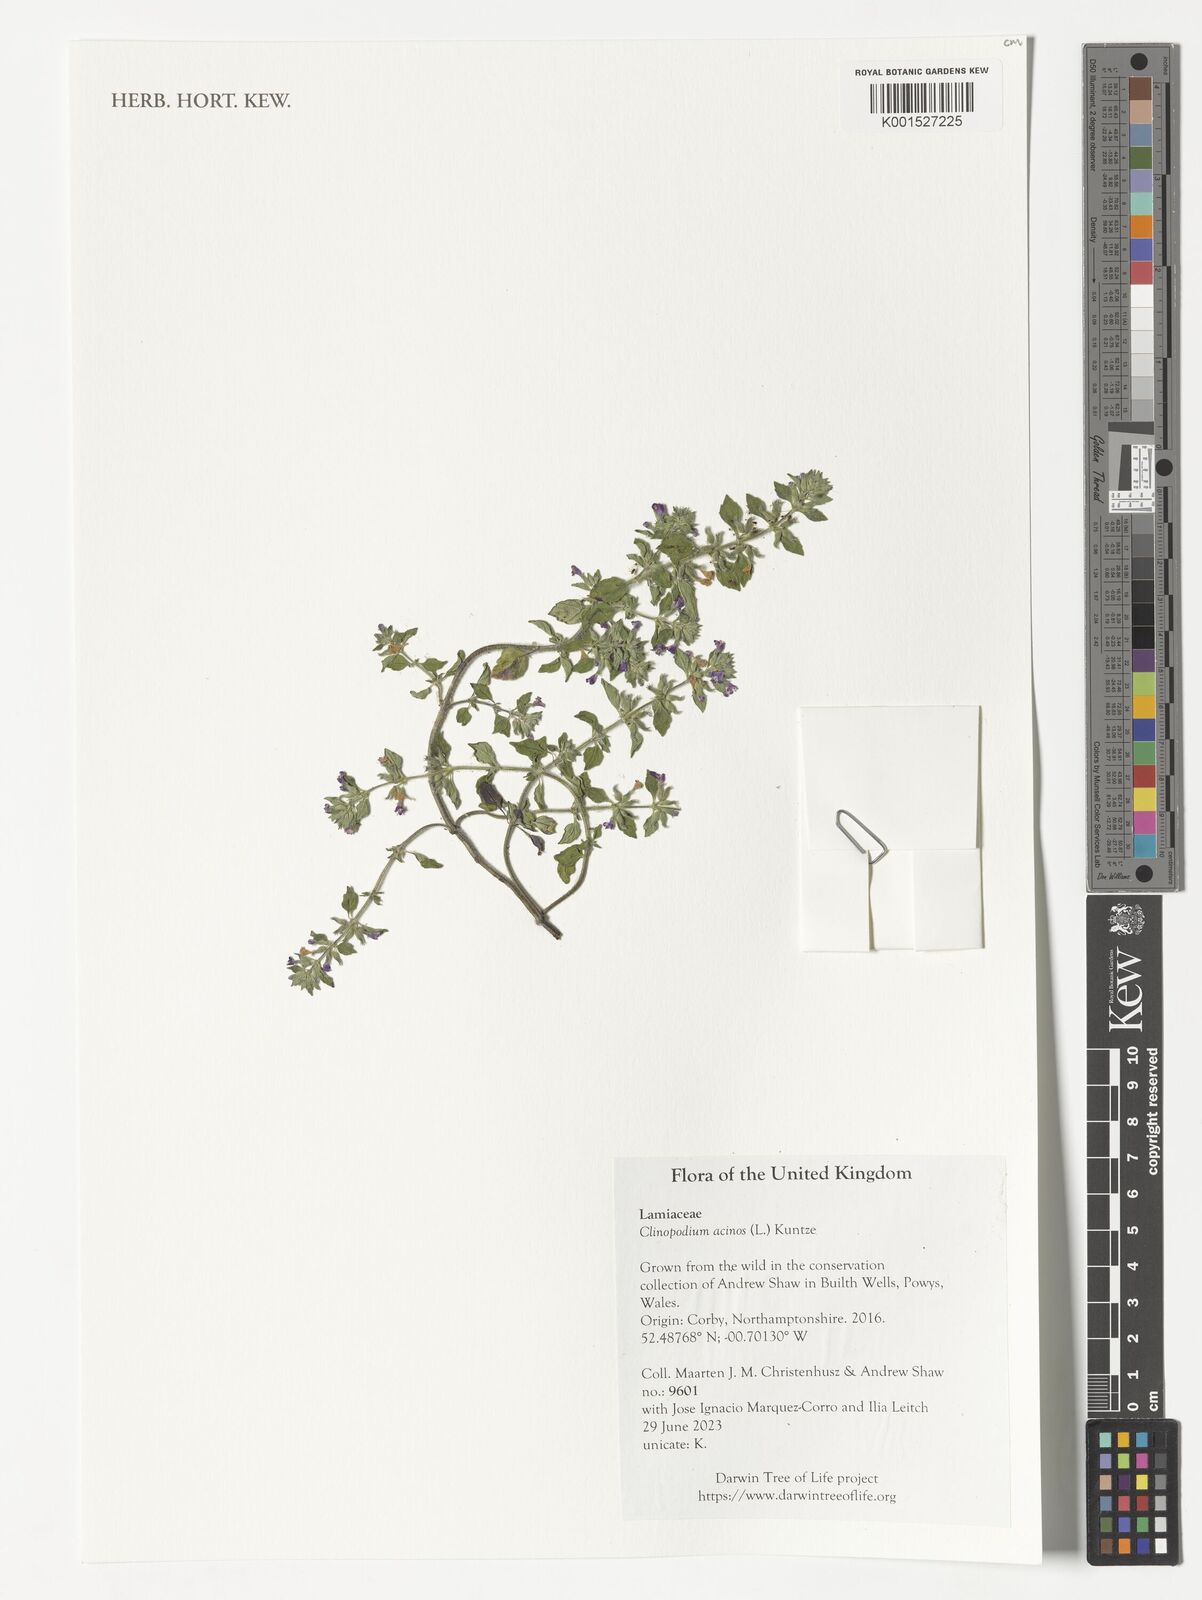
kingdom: Plantae
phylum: Tracheophyta
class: Magnoliopsida
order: Lamiales
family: Lamiaceae
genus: Clinopodium
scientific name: Clinopodium acinos
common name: Basil thyme
